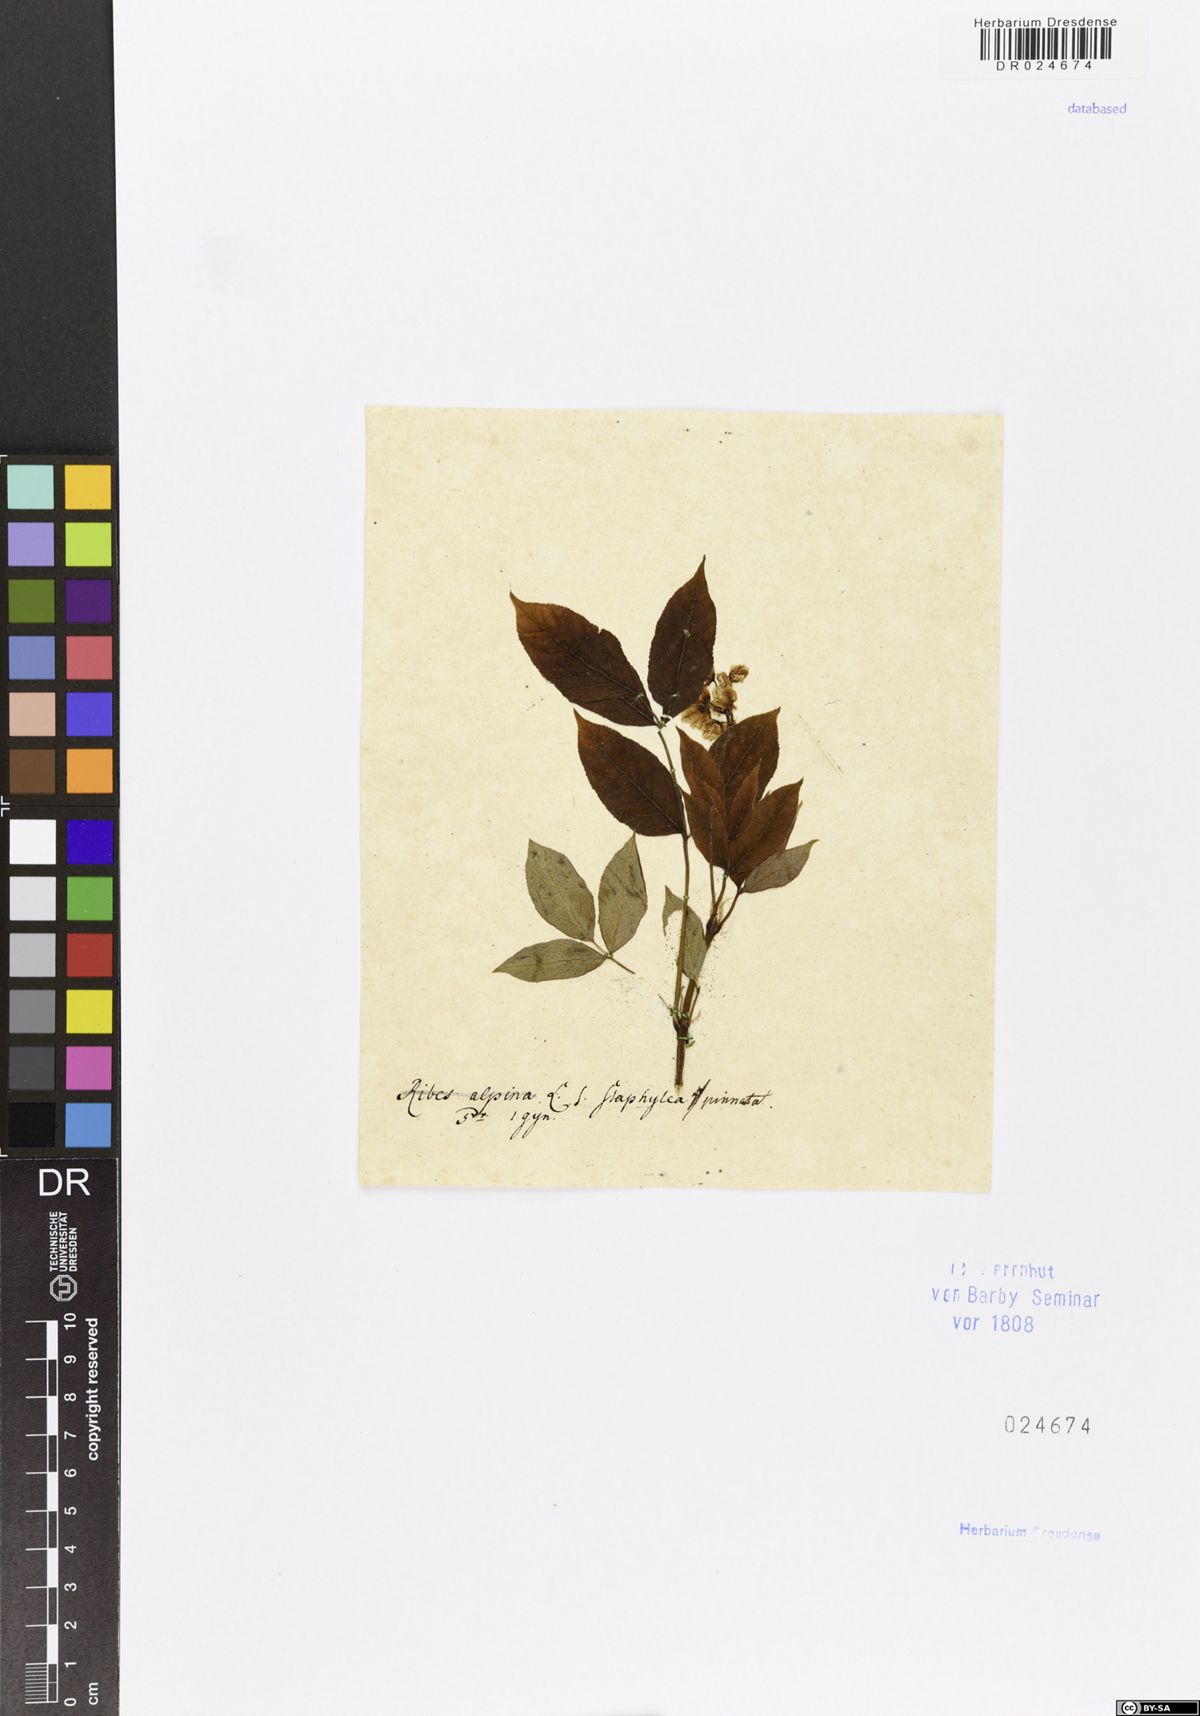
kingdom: Plantae
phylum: Tracheophyta
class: Magnoliopsida
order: Crossosomatales
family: Staphyleaceae
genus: Staphylea
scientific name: Staphylea pinnata
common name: Bladdernut
